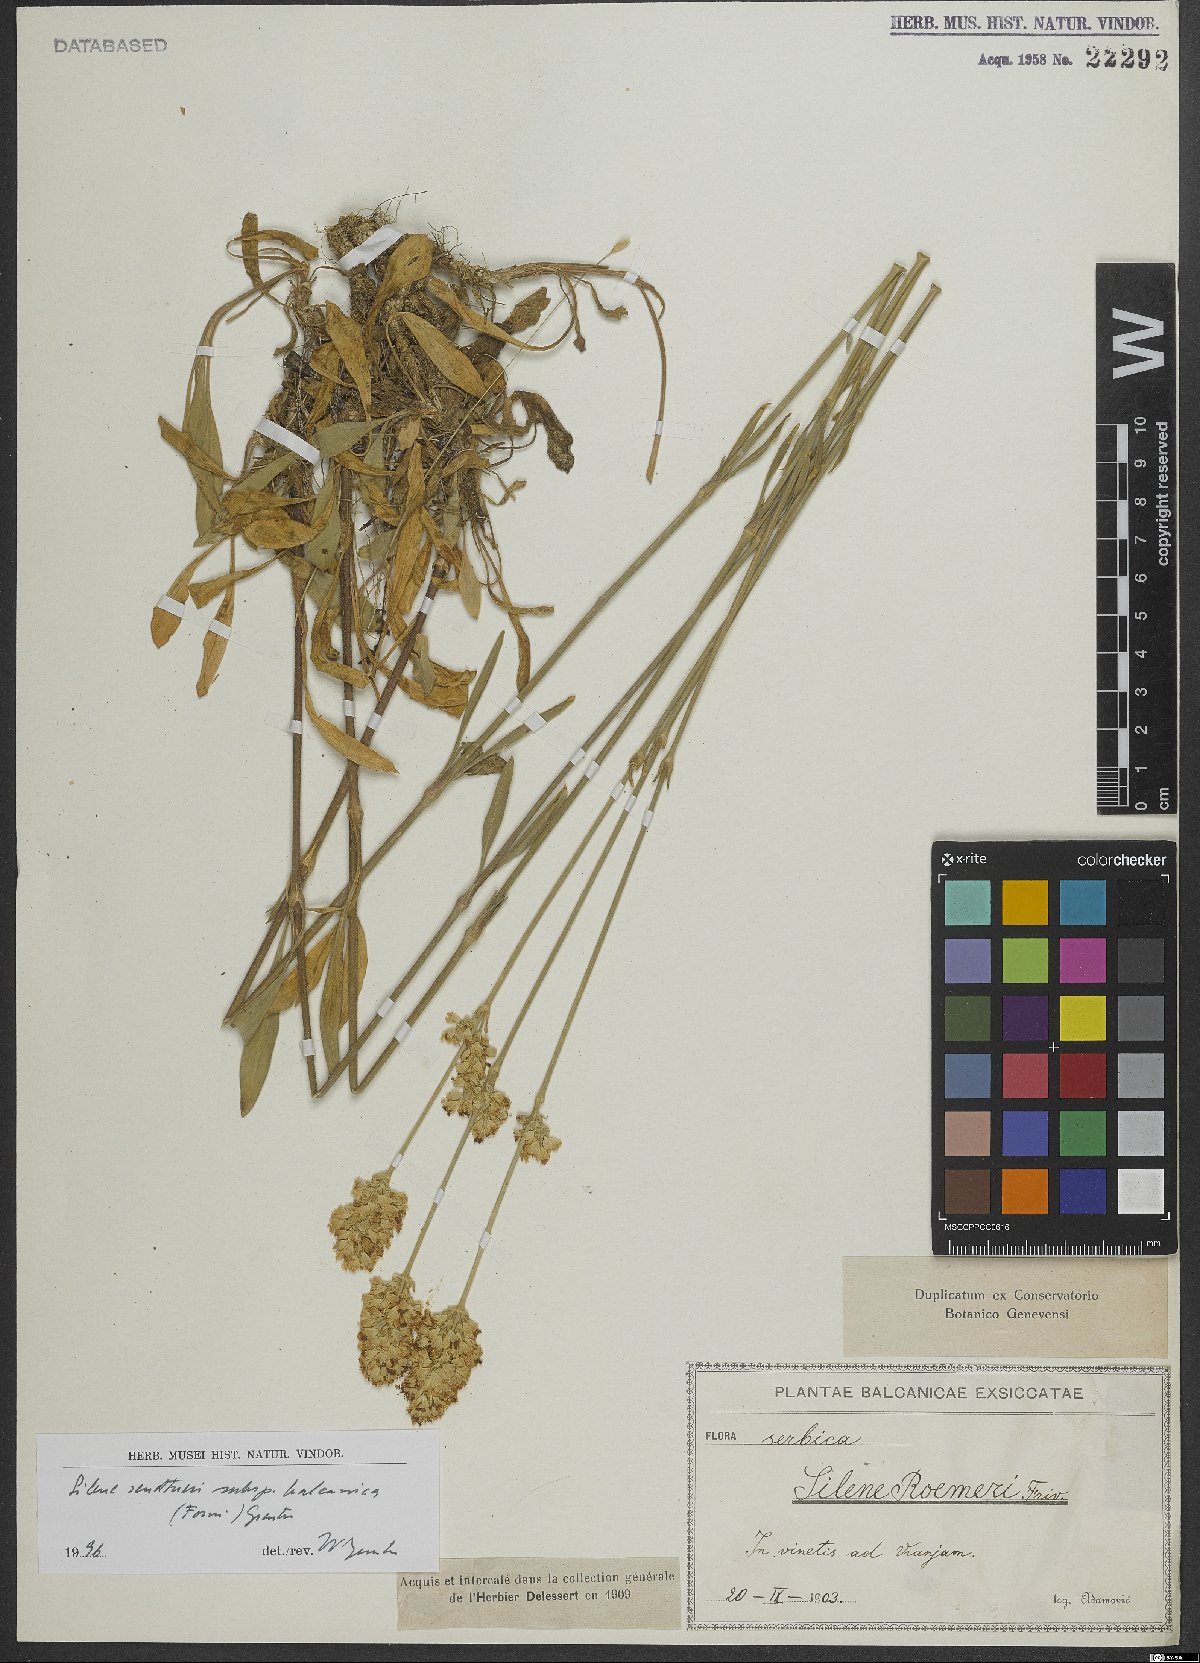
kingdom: Plantae
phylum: Tracheophyta
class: Magnoliopsida
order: Caryophyllales
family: Caryophyllaceae
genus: Silene
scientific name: Silene sendtneri
